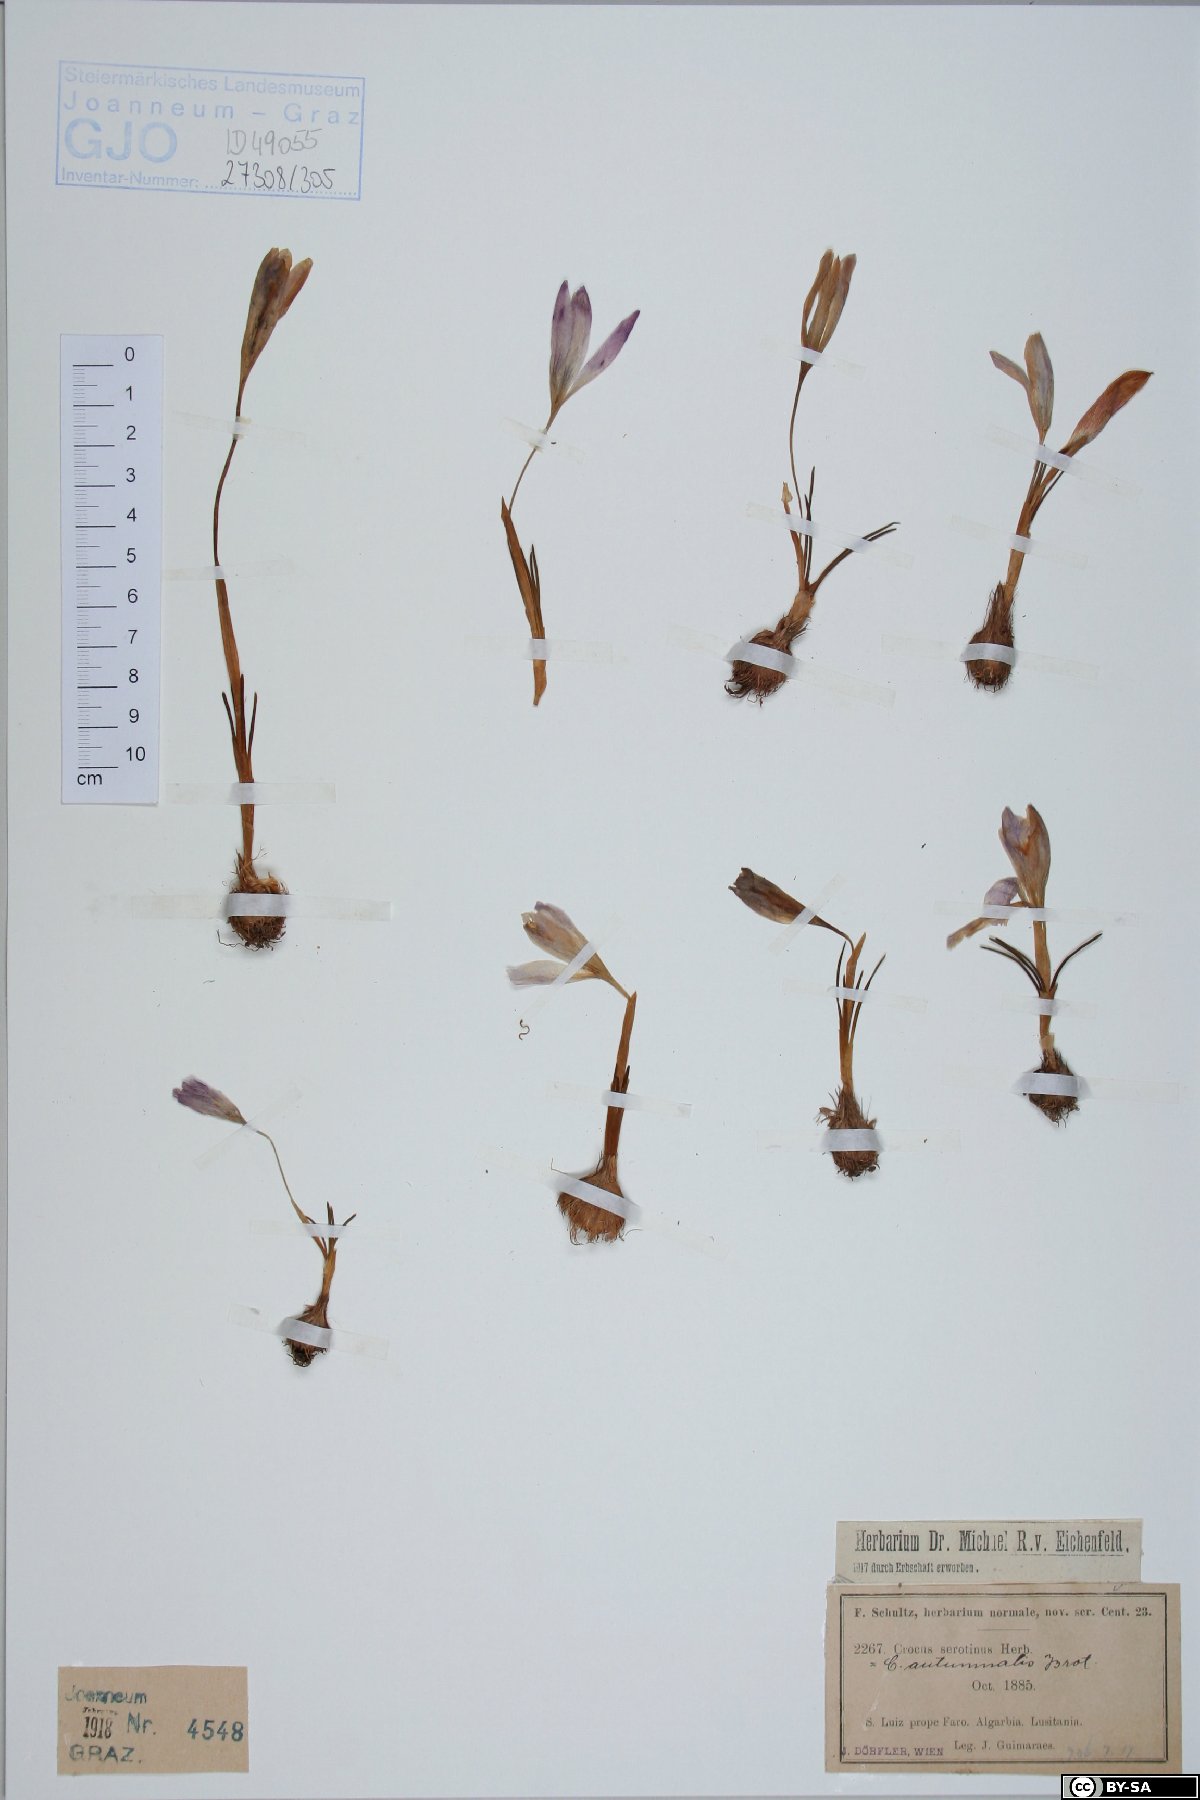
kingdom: Plantae
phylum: Tracheophyta
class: Liliopsida
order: Asparagales
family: Iridaceae
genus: Crocus
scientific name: Crocus autumnalis
